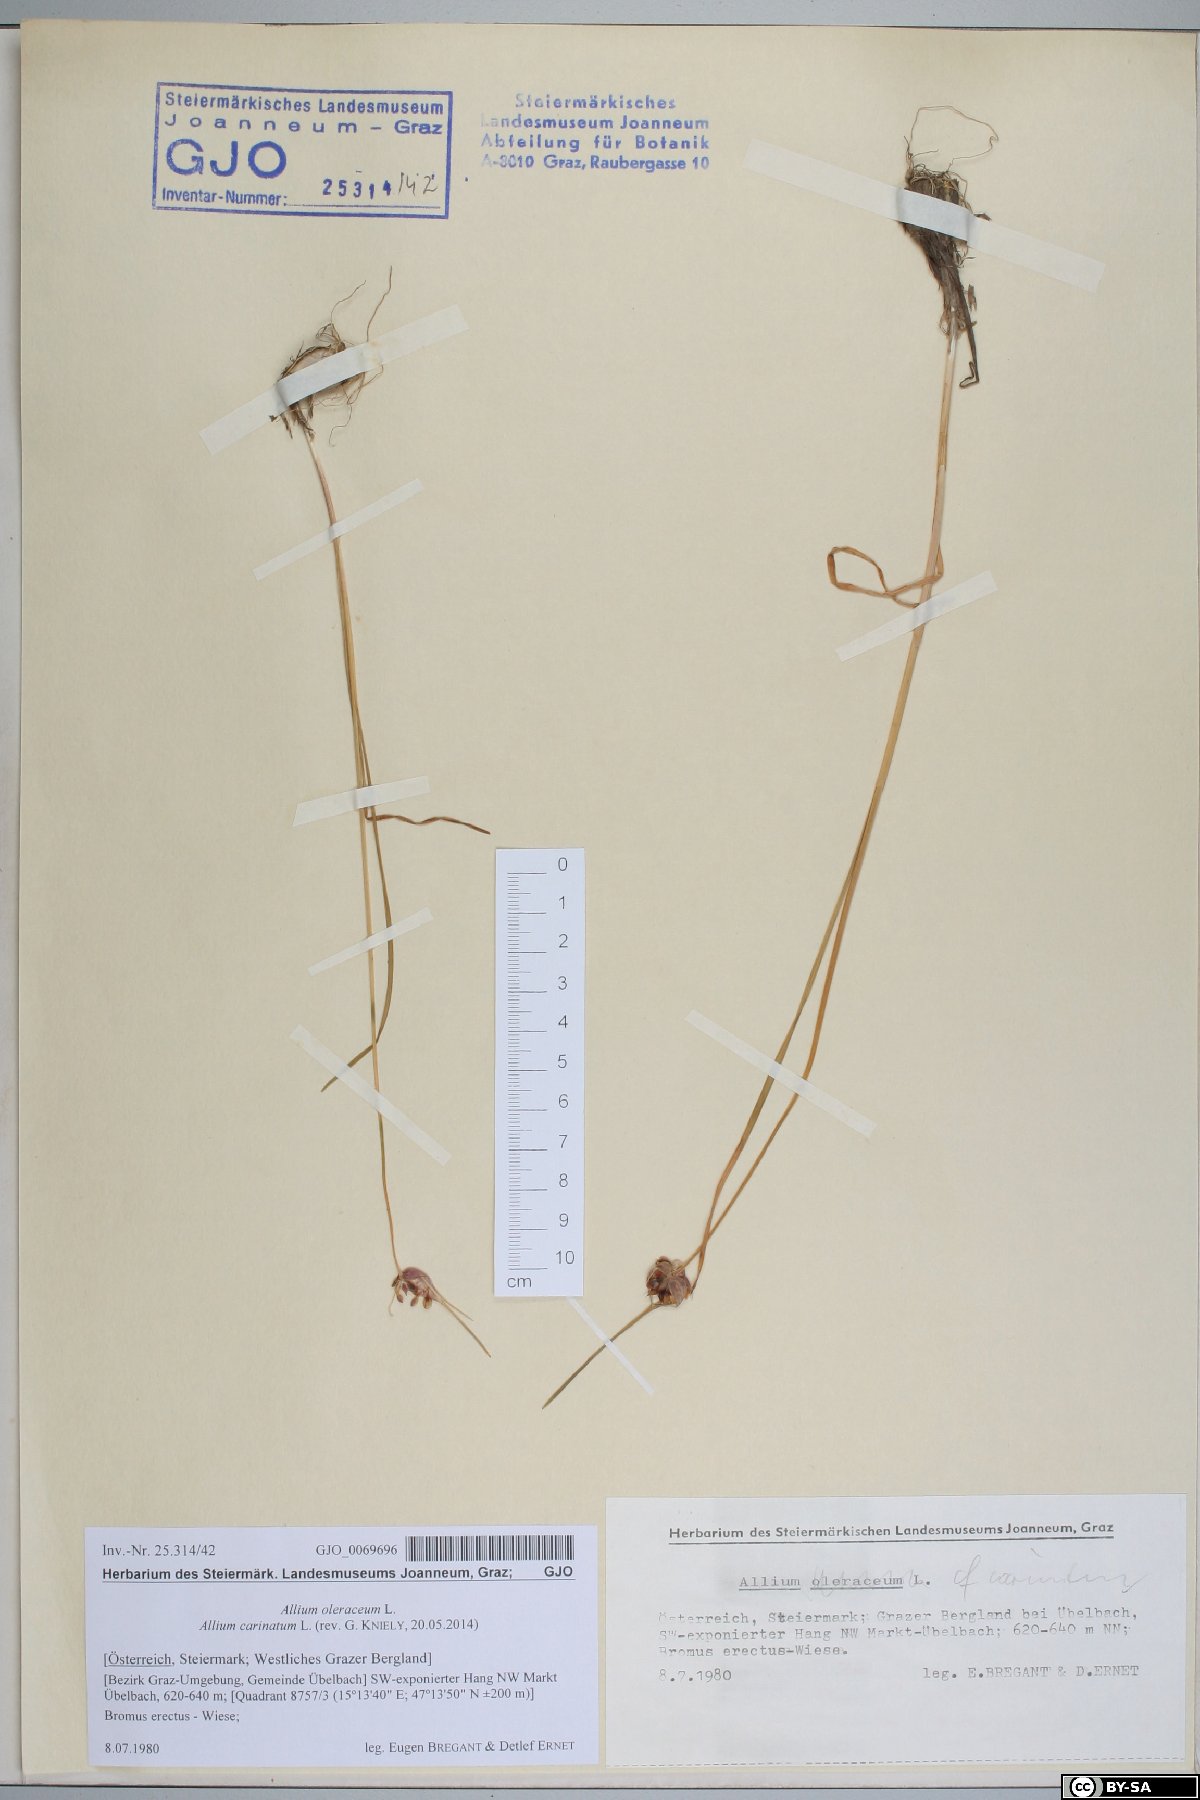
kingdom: Plantae
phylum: Tracheophyta
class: Liliopsida
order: Asparagales
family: Amaryllidaceae
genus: Allium
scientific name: Allium carinatum
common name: Keeled garlic
